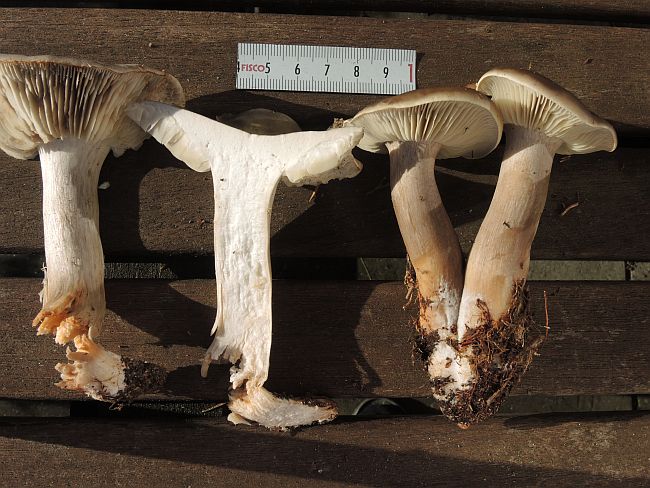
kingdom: Fungi
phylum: Basidiomycota
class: Agaricomycetes
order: Agaricales
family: Tricholomataceae
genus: Tricholoma
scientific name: Tricholoma saponaceum
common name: Soapy trich
